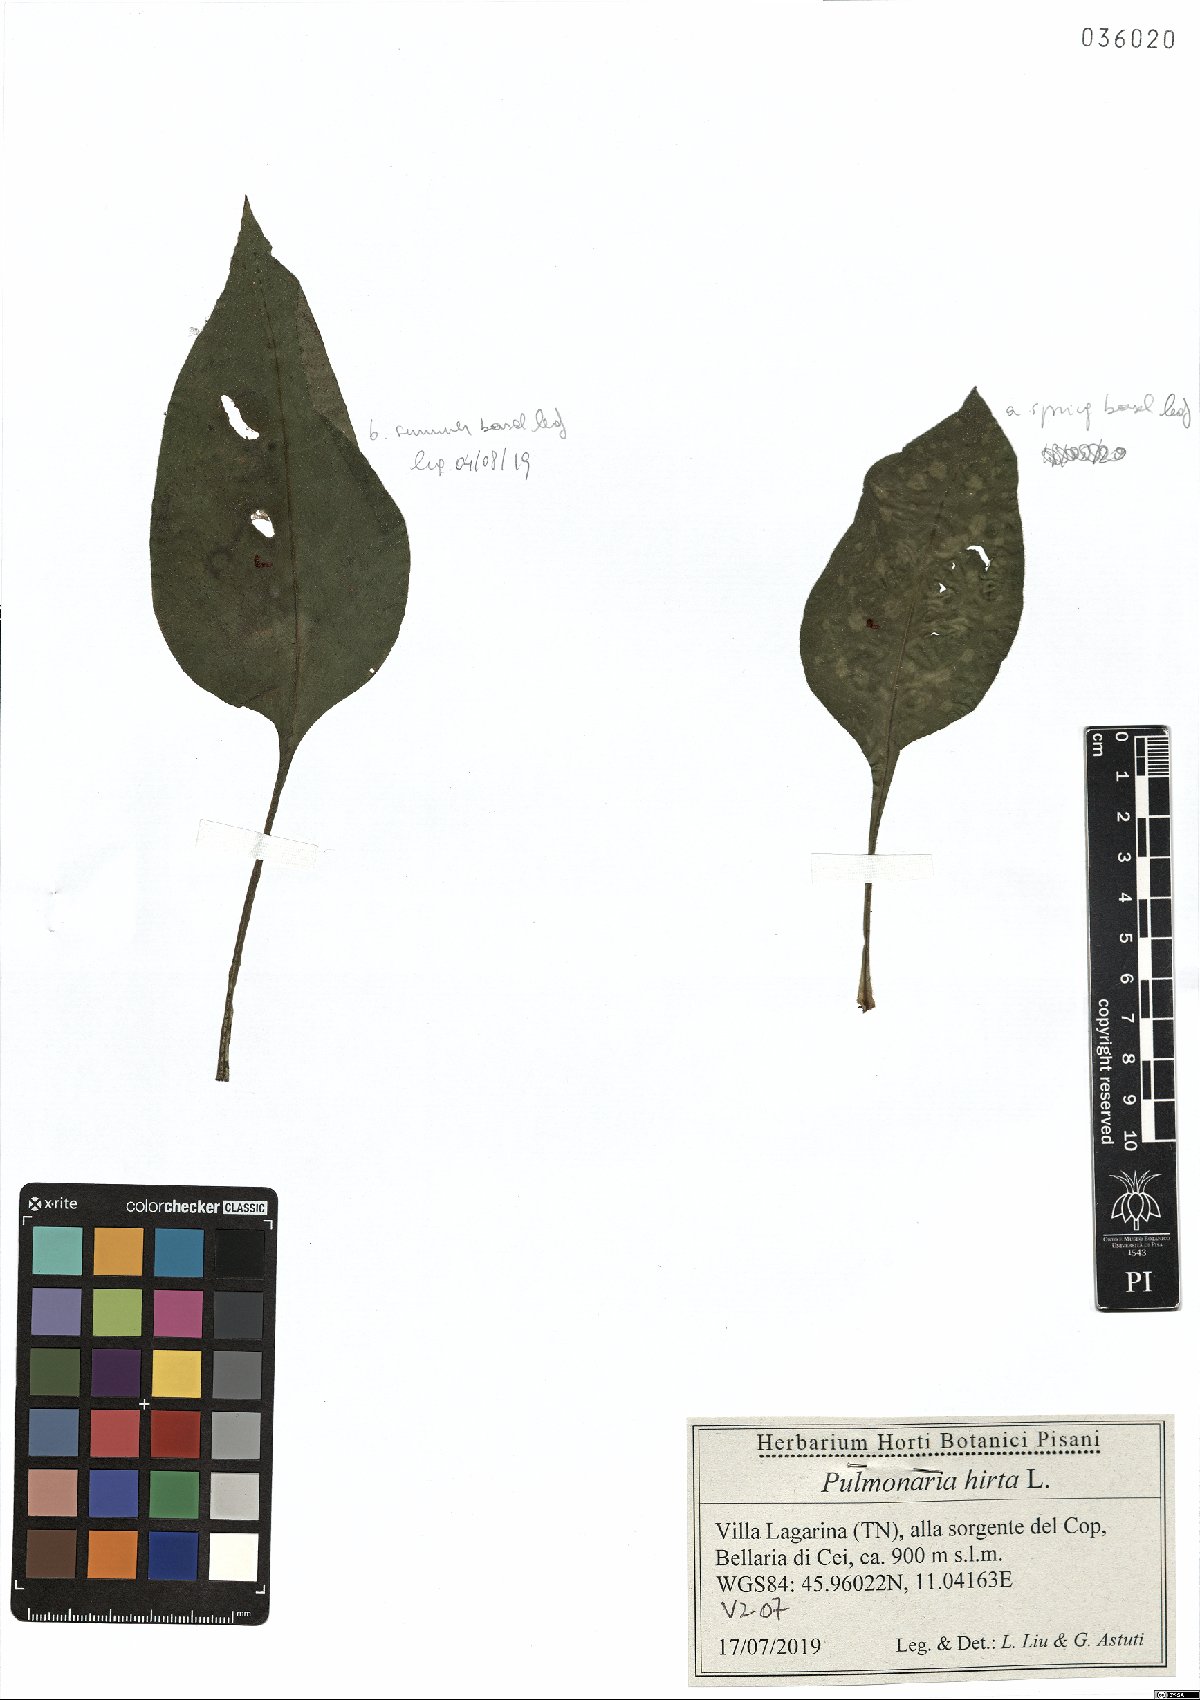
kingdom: Plantae
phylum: Tracheophyta
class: Magnoliopsida
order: Boraginales
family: Boraginaceae
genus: Pulmonaria
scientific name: Pulmonaria hirta
